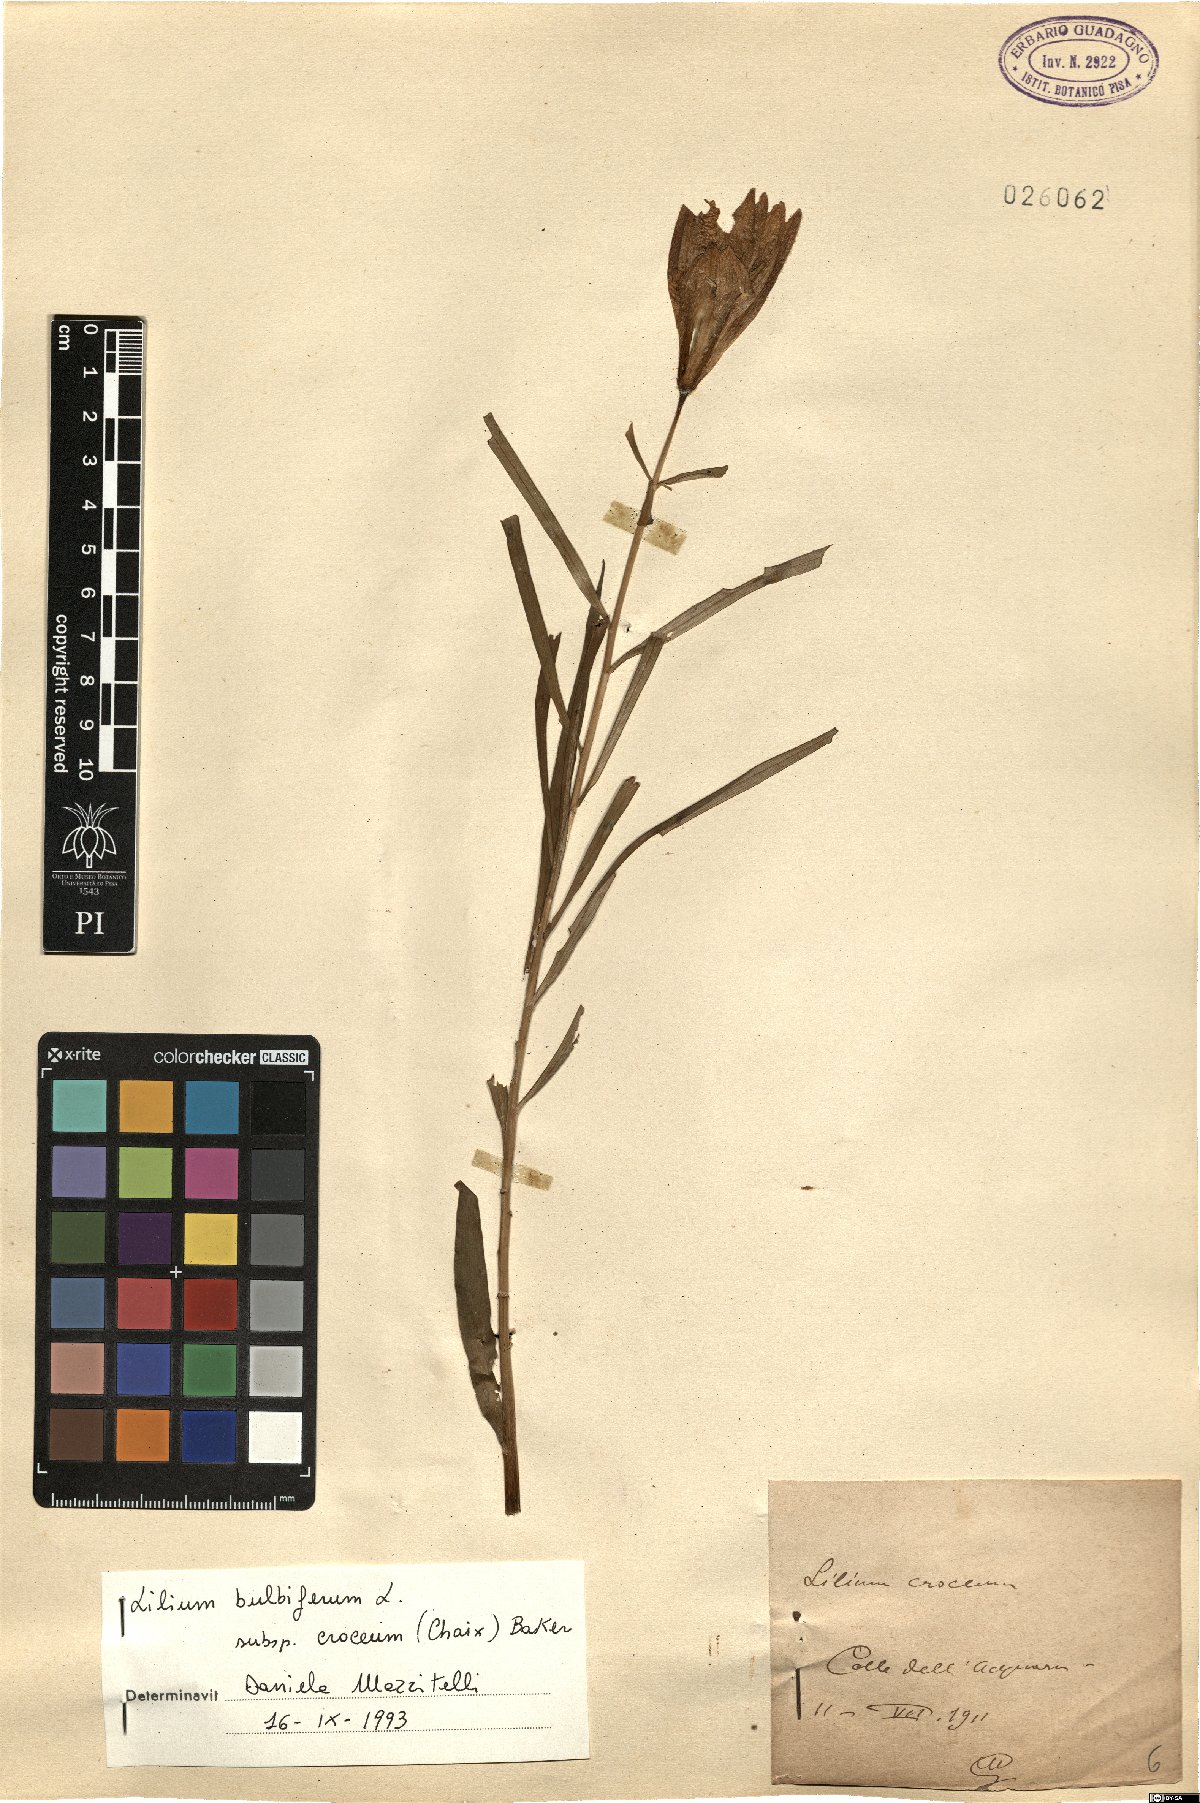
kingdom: Plantae
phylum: Tracheophyta
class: Liliopsida
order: Liliales
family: Liliaceae
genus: Lilium
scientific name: Lilium bulbiferum
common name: Orange lily
